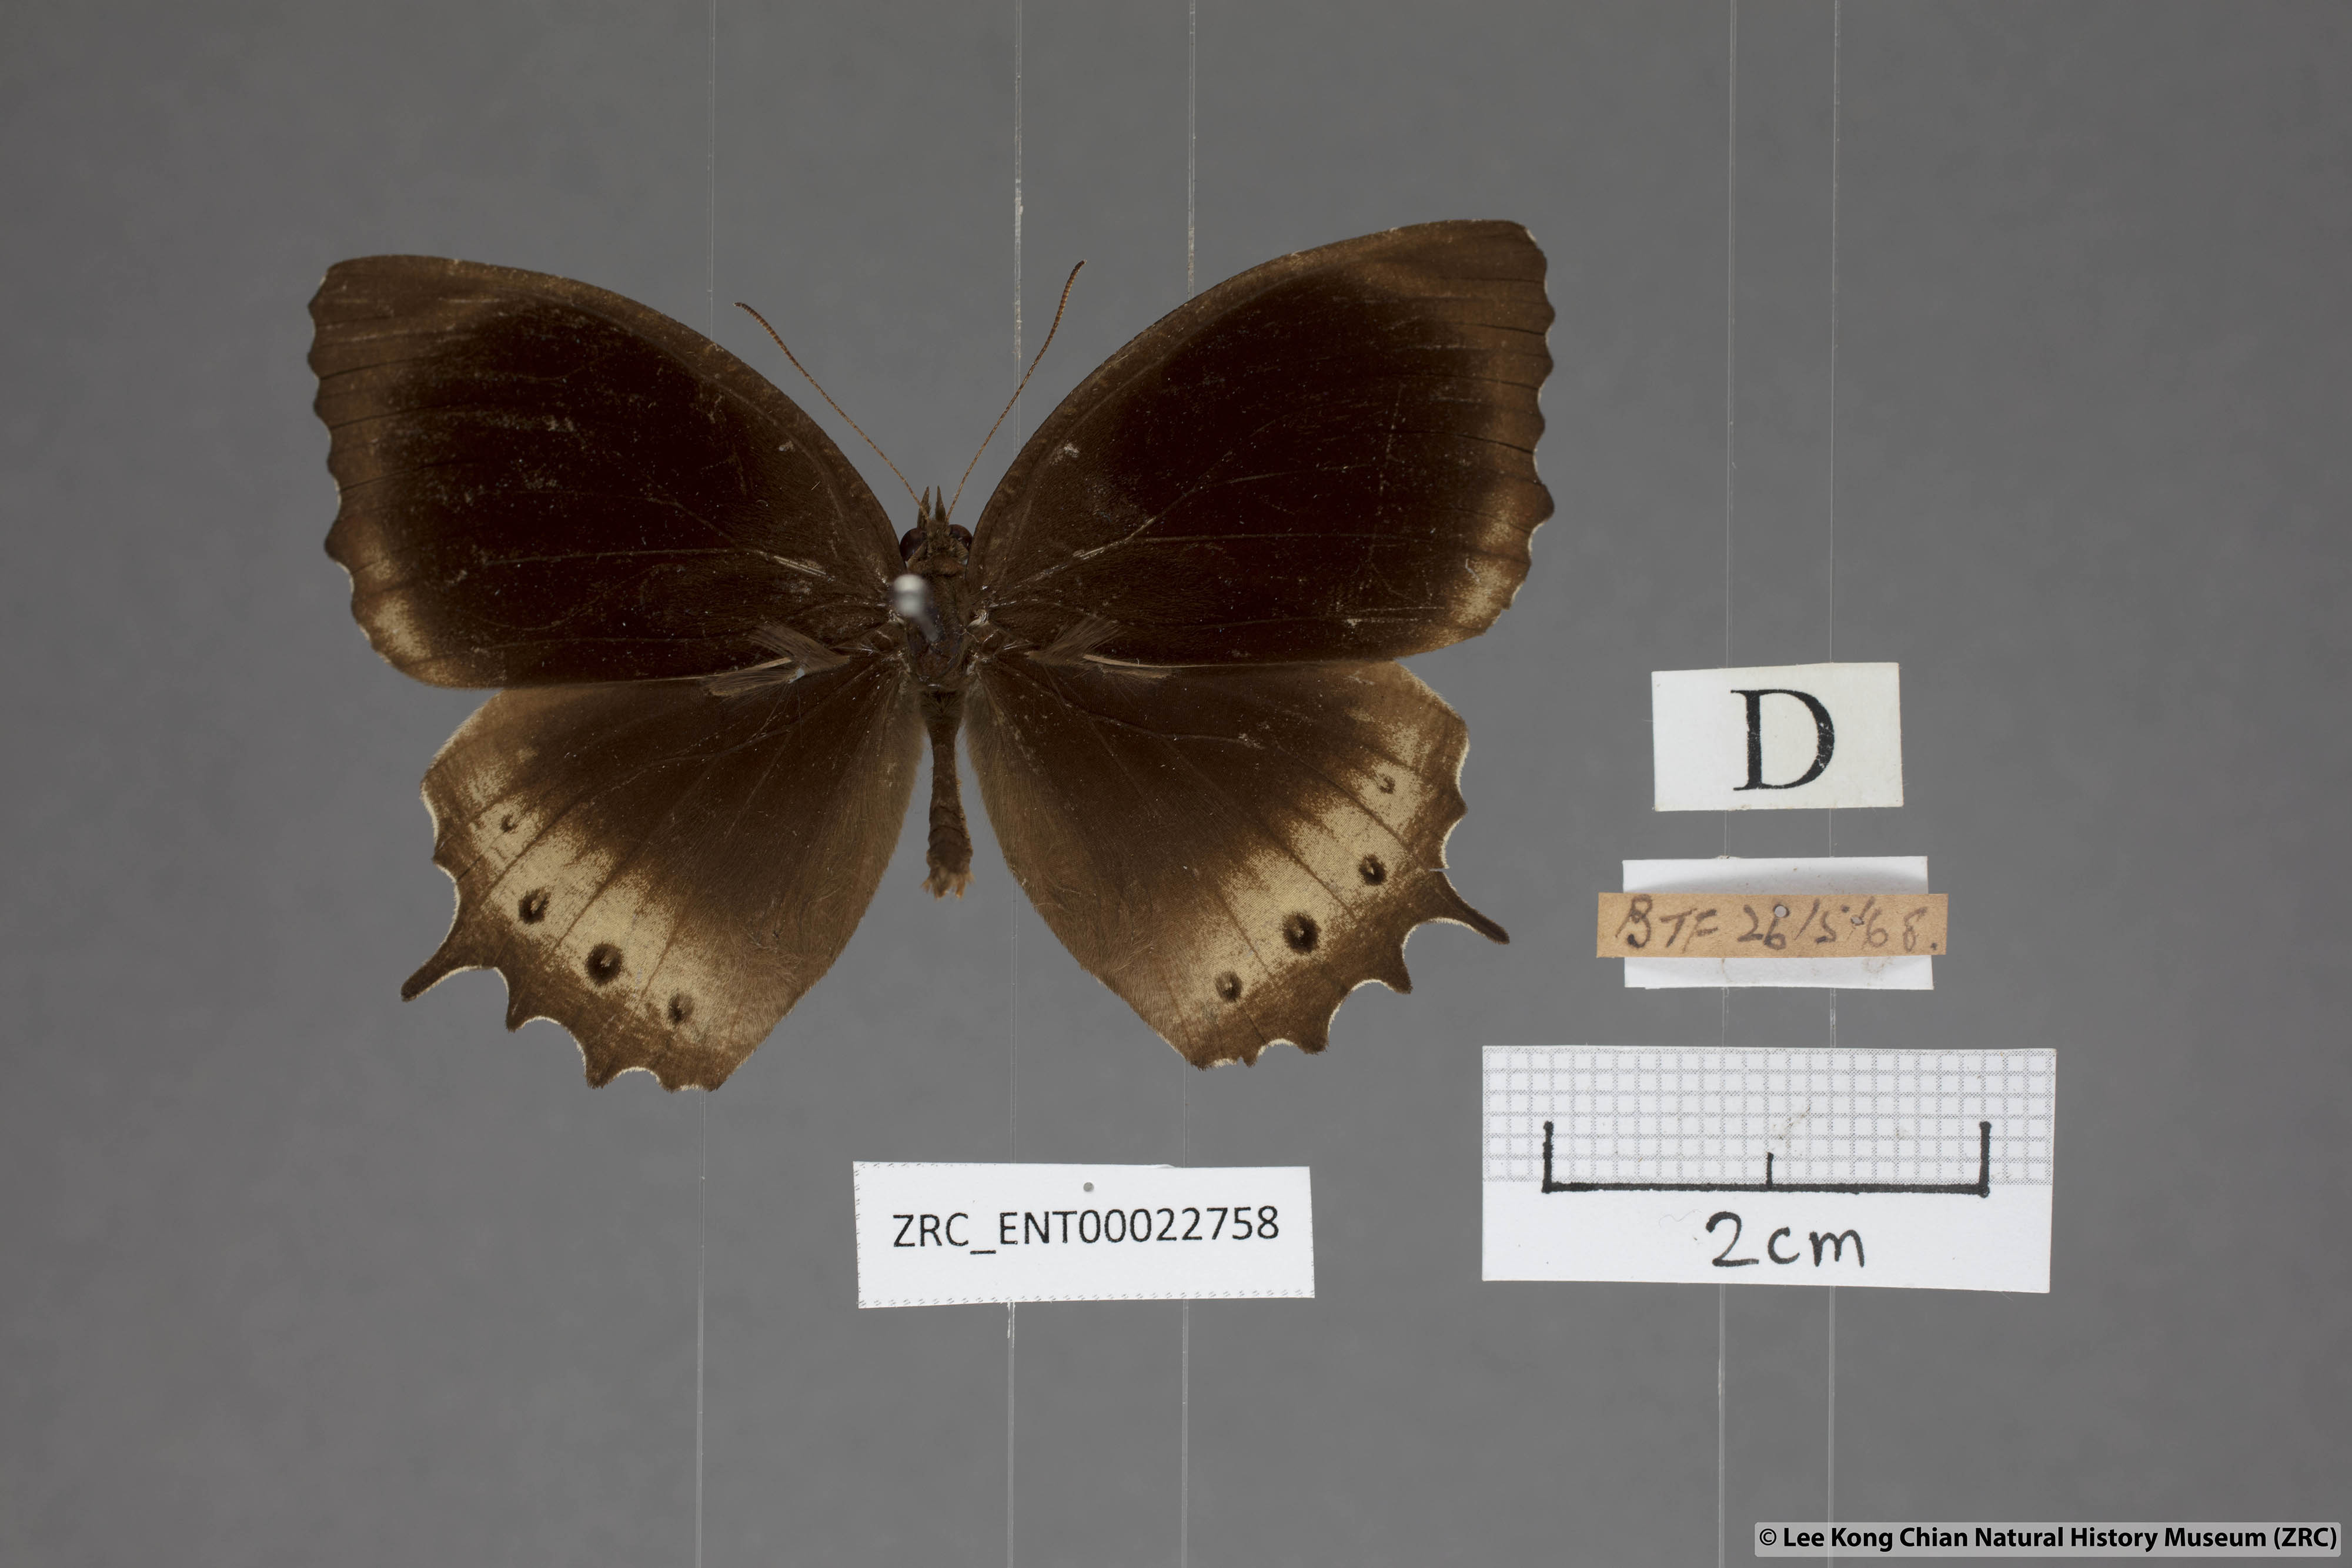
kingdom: Animalia
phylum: Arthropoda
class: Insecta
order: Lepidoptera
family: Nymphalidae
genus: Elymnias
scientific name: Elymnias panthera
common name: Tawny palmfly
